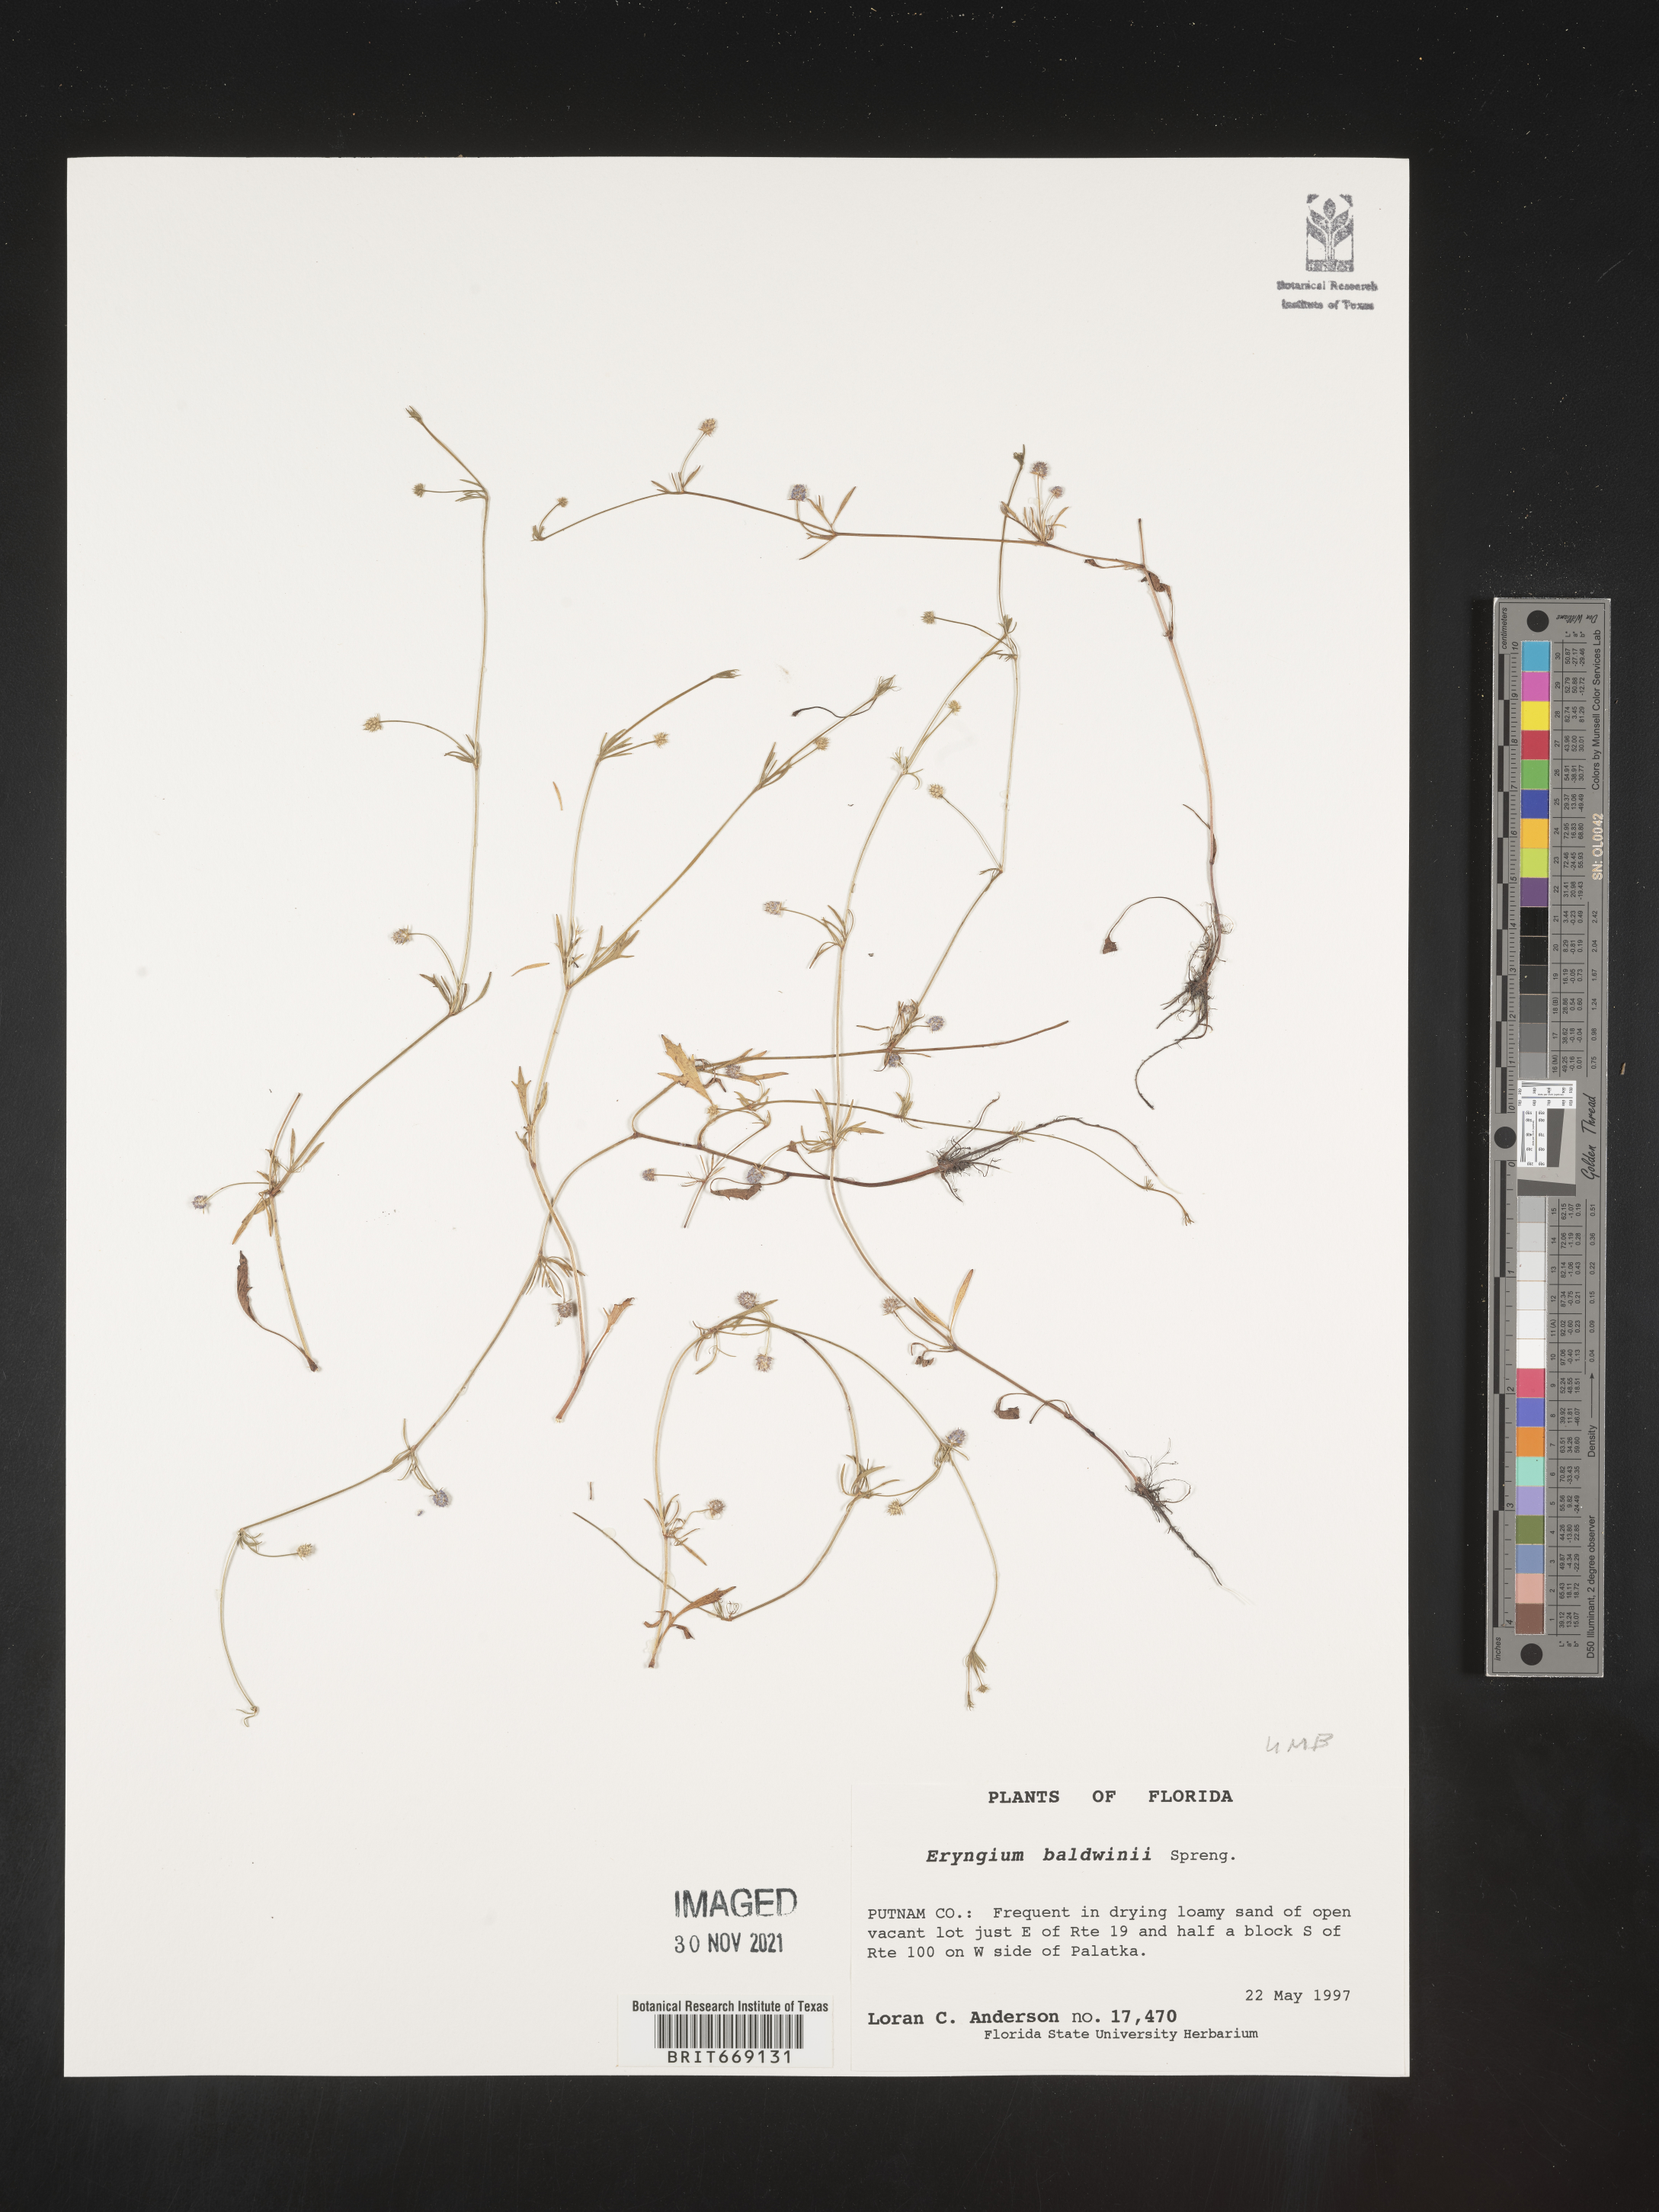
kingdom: Plantae
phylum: Tracheophyta
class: Magnoliopsida
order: Apiales
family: Apiaceae
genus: Eryngium
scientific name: Eryngium baldwinii
